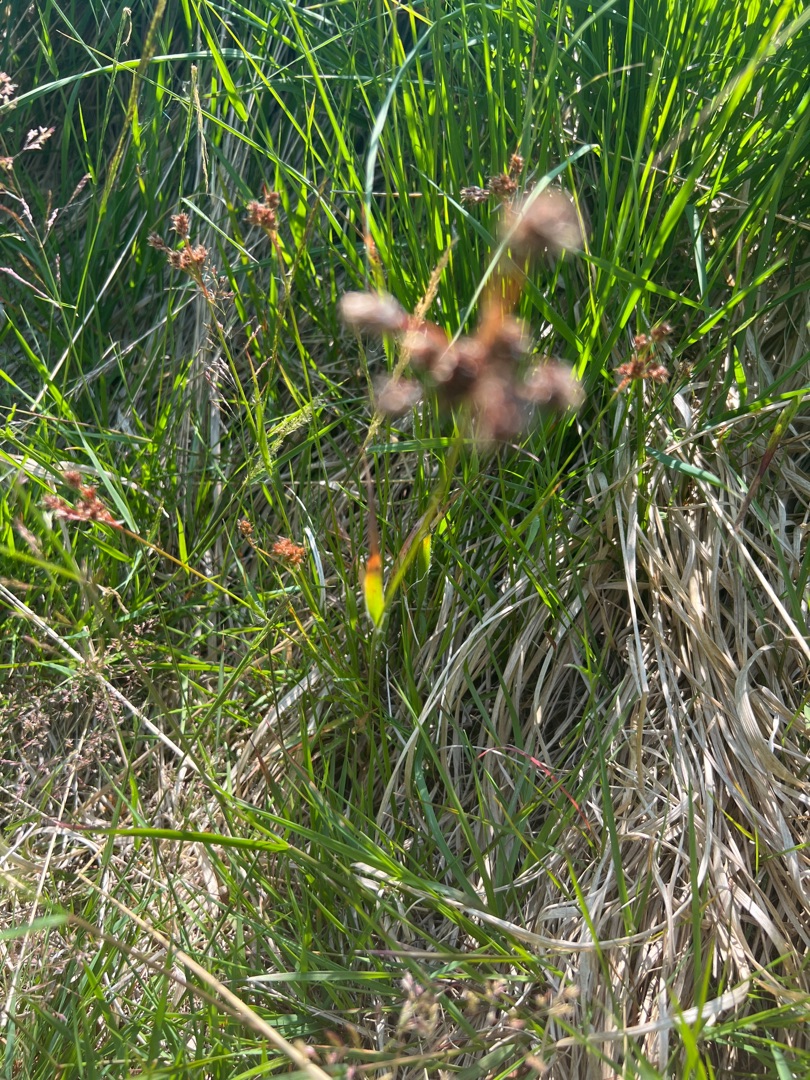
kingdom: Plantae
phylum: Tracheophyta
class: Liliopsida
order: Poales
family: Juncaceae
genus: Luzula
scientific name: Luzula multiflora
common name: Mangeblomstret frytle
